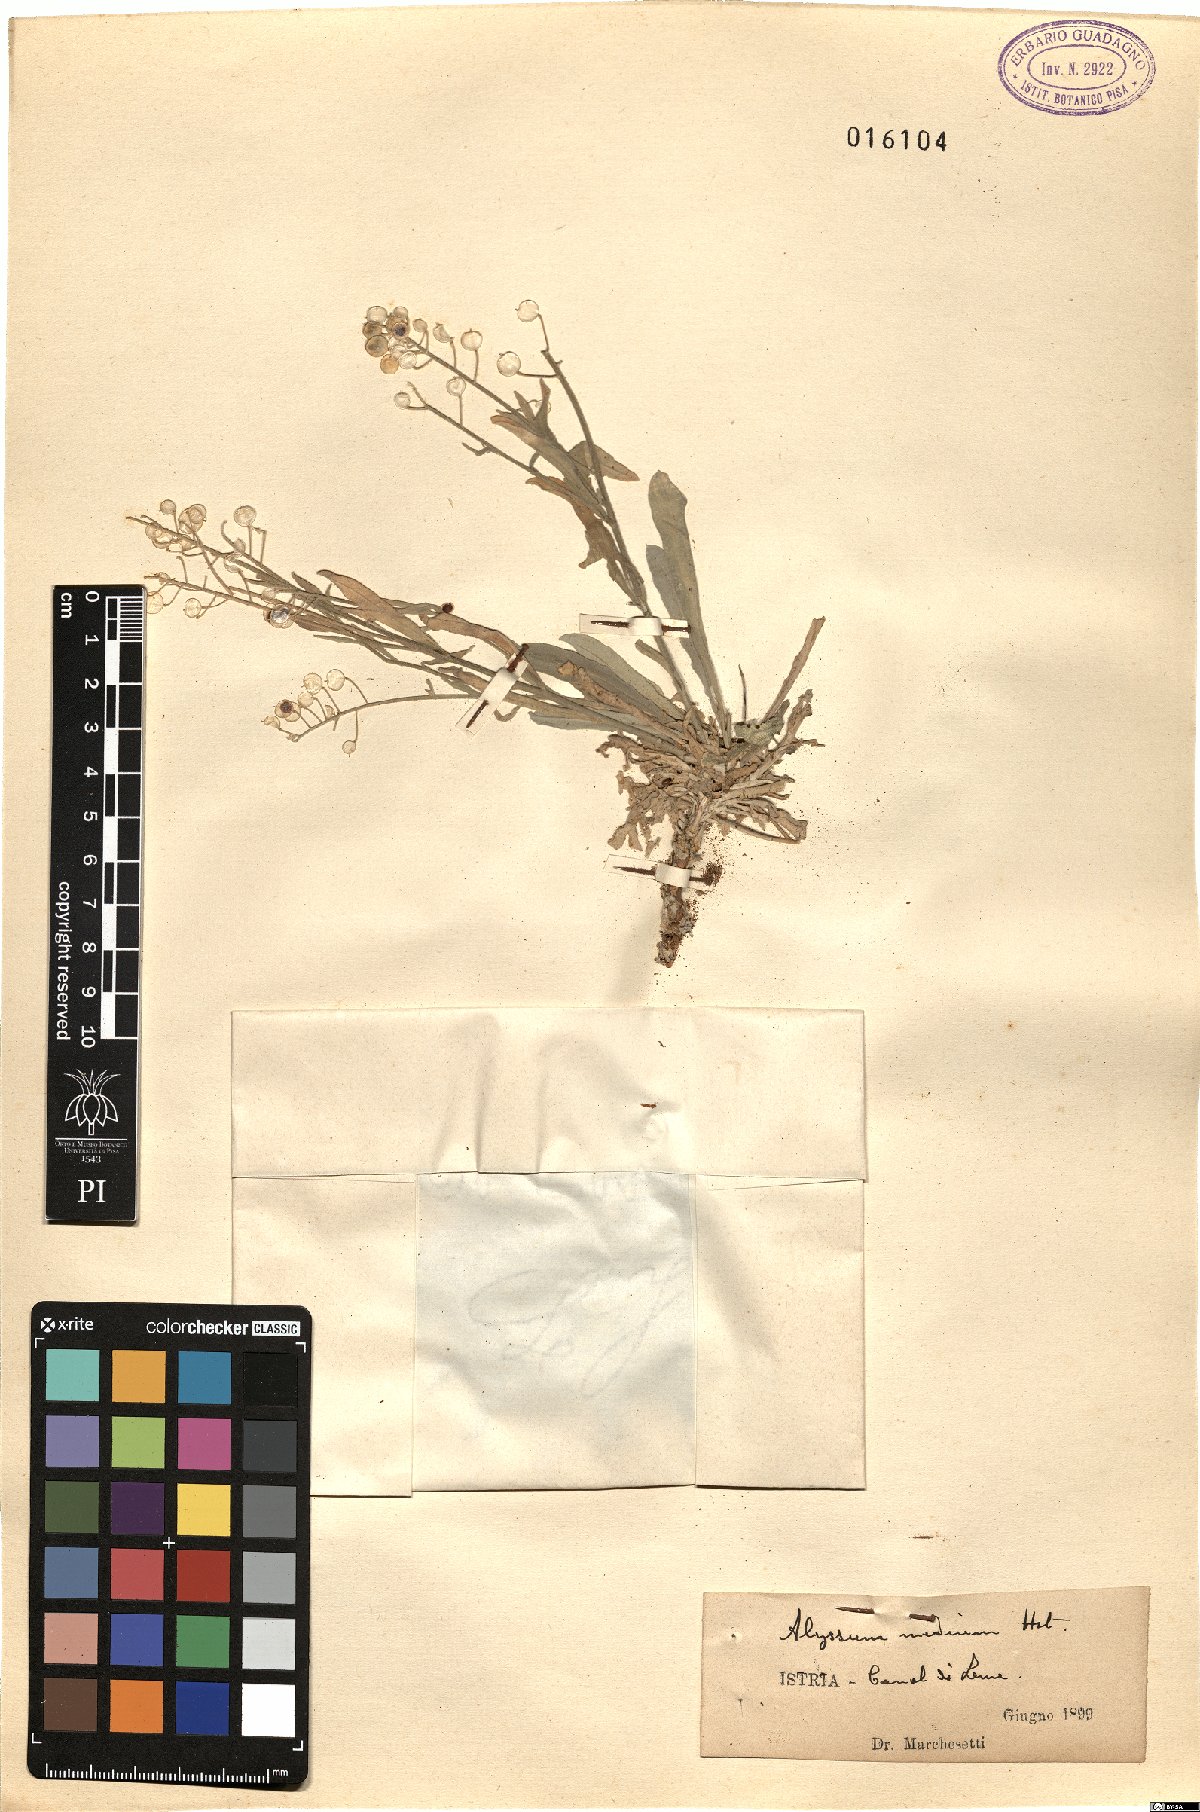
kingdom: Plantae
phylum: Tracheophyta
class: Magnoliopsida
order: Brassicales
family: Brassicaceae
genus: Aurinia
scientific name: Aurinia leucadea
